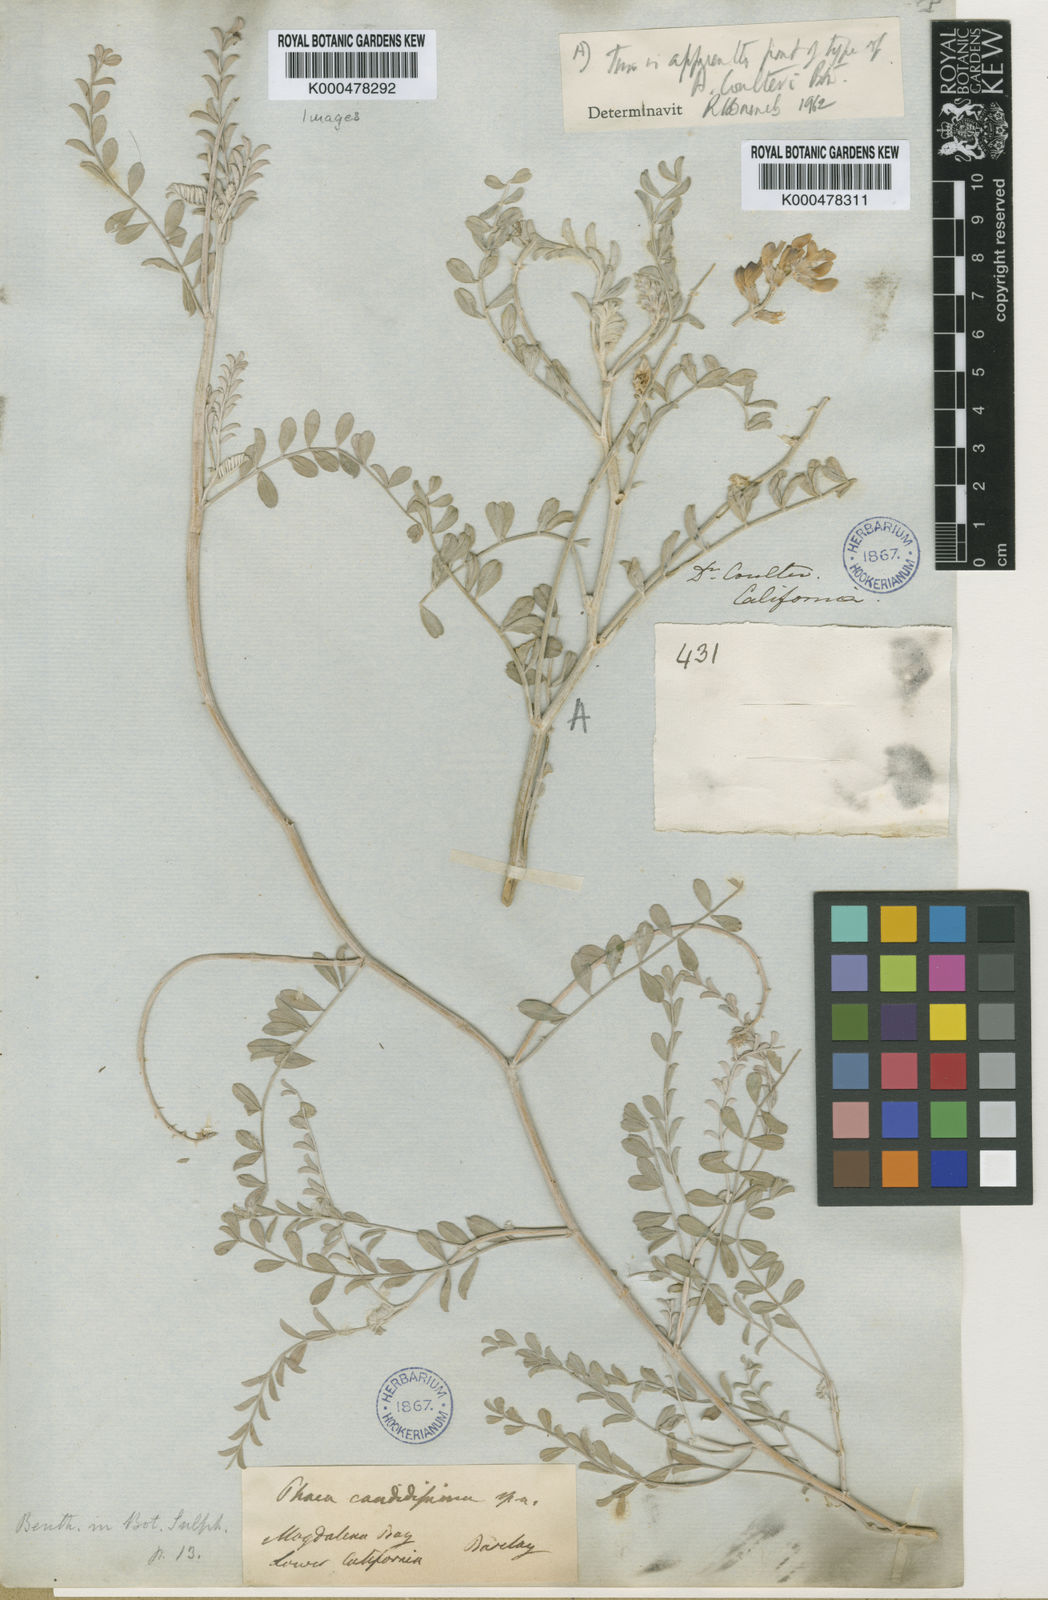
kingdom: Plantae
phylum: Tracheophyta
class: Magnoliopsida
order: Fabales
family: Fabaceae
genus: Astragalus
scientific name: Astragalus magdalenae
